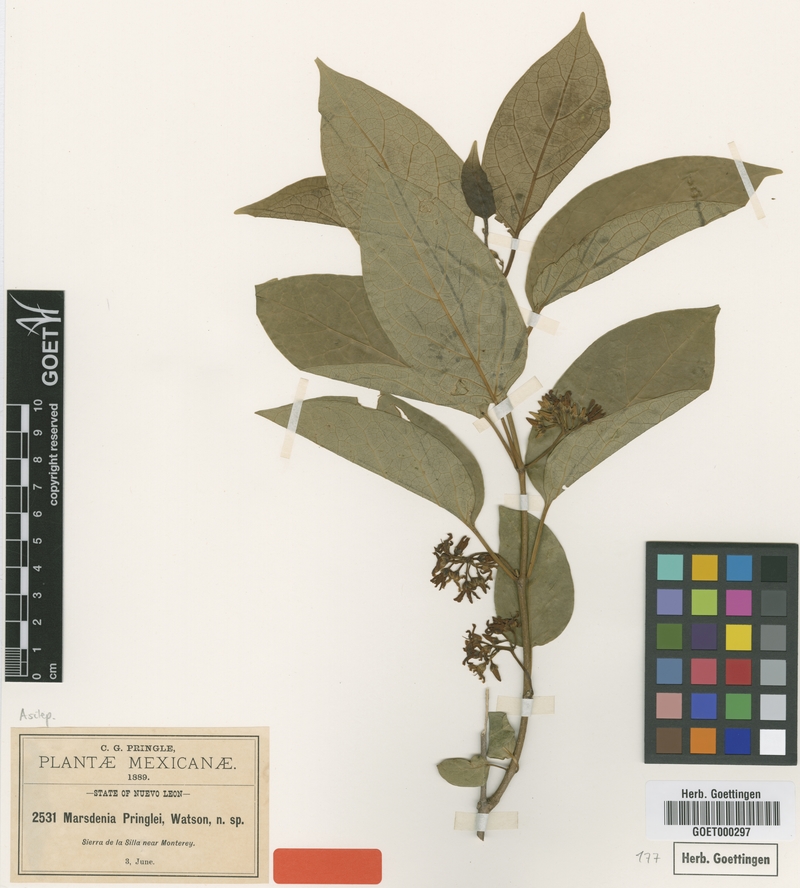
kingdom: Plantae
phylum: Tracheophyta
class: Magnoliopsida
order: Gentianales
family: Apocynaceae
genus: Ruehssia
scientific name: Ruehssia pringlei
